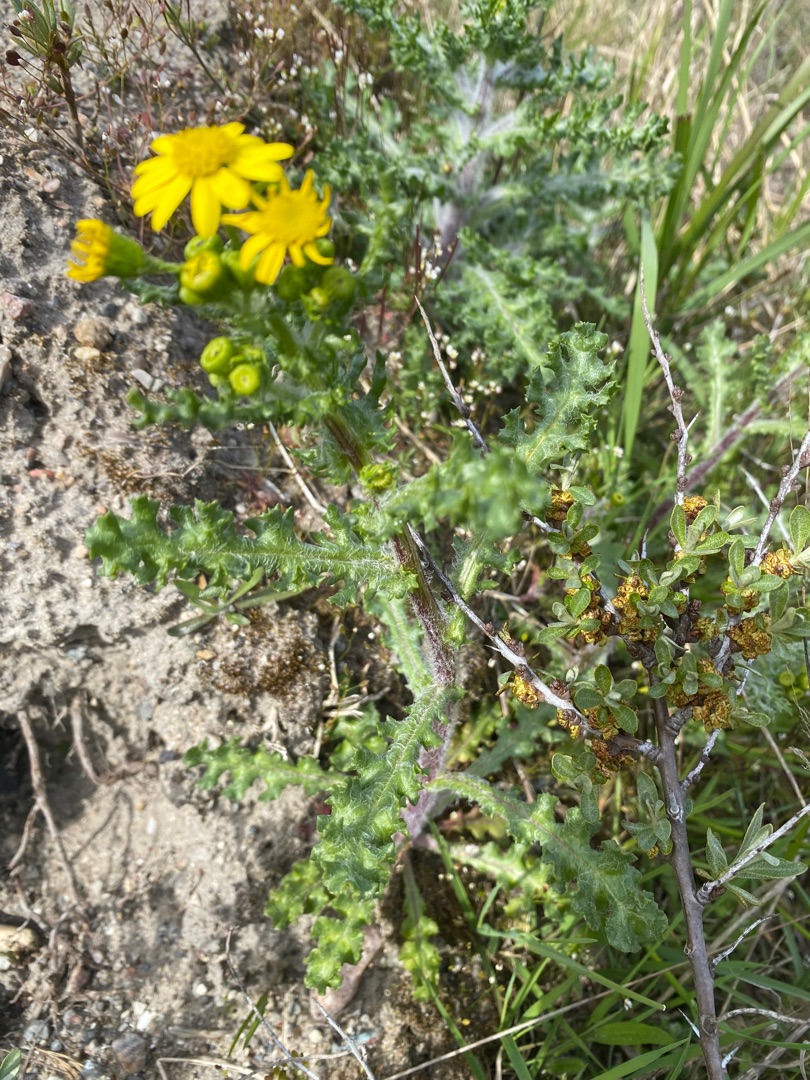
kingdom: Plantae
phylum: Tracheophyta
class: Magnoliopsida
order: Asterales
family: Asteraceae
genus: Senecio
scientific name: Senecio leucanthemifolius
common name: Vår-brandbæger
